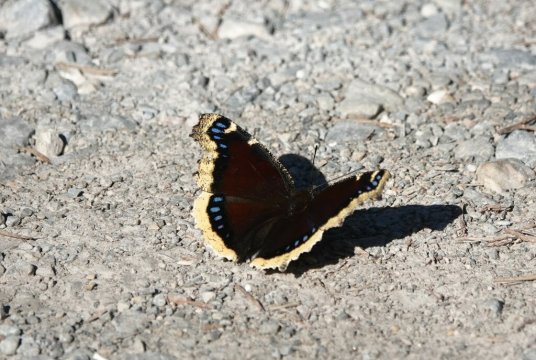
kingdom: Animalia
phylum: Arthropoda
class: Insecta
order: Lepidoptera
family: Nymphalidae
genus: Nymphalis
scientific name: Nymphalis antiopa
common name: Mourning Cloak
